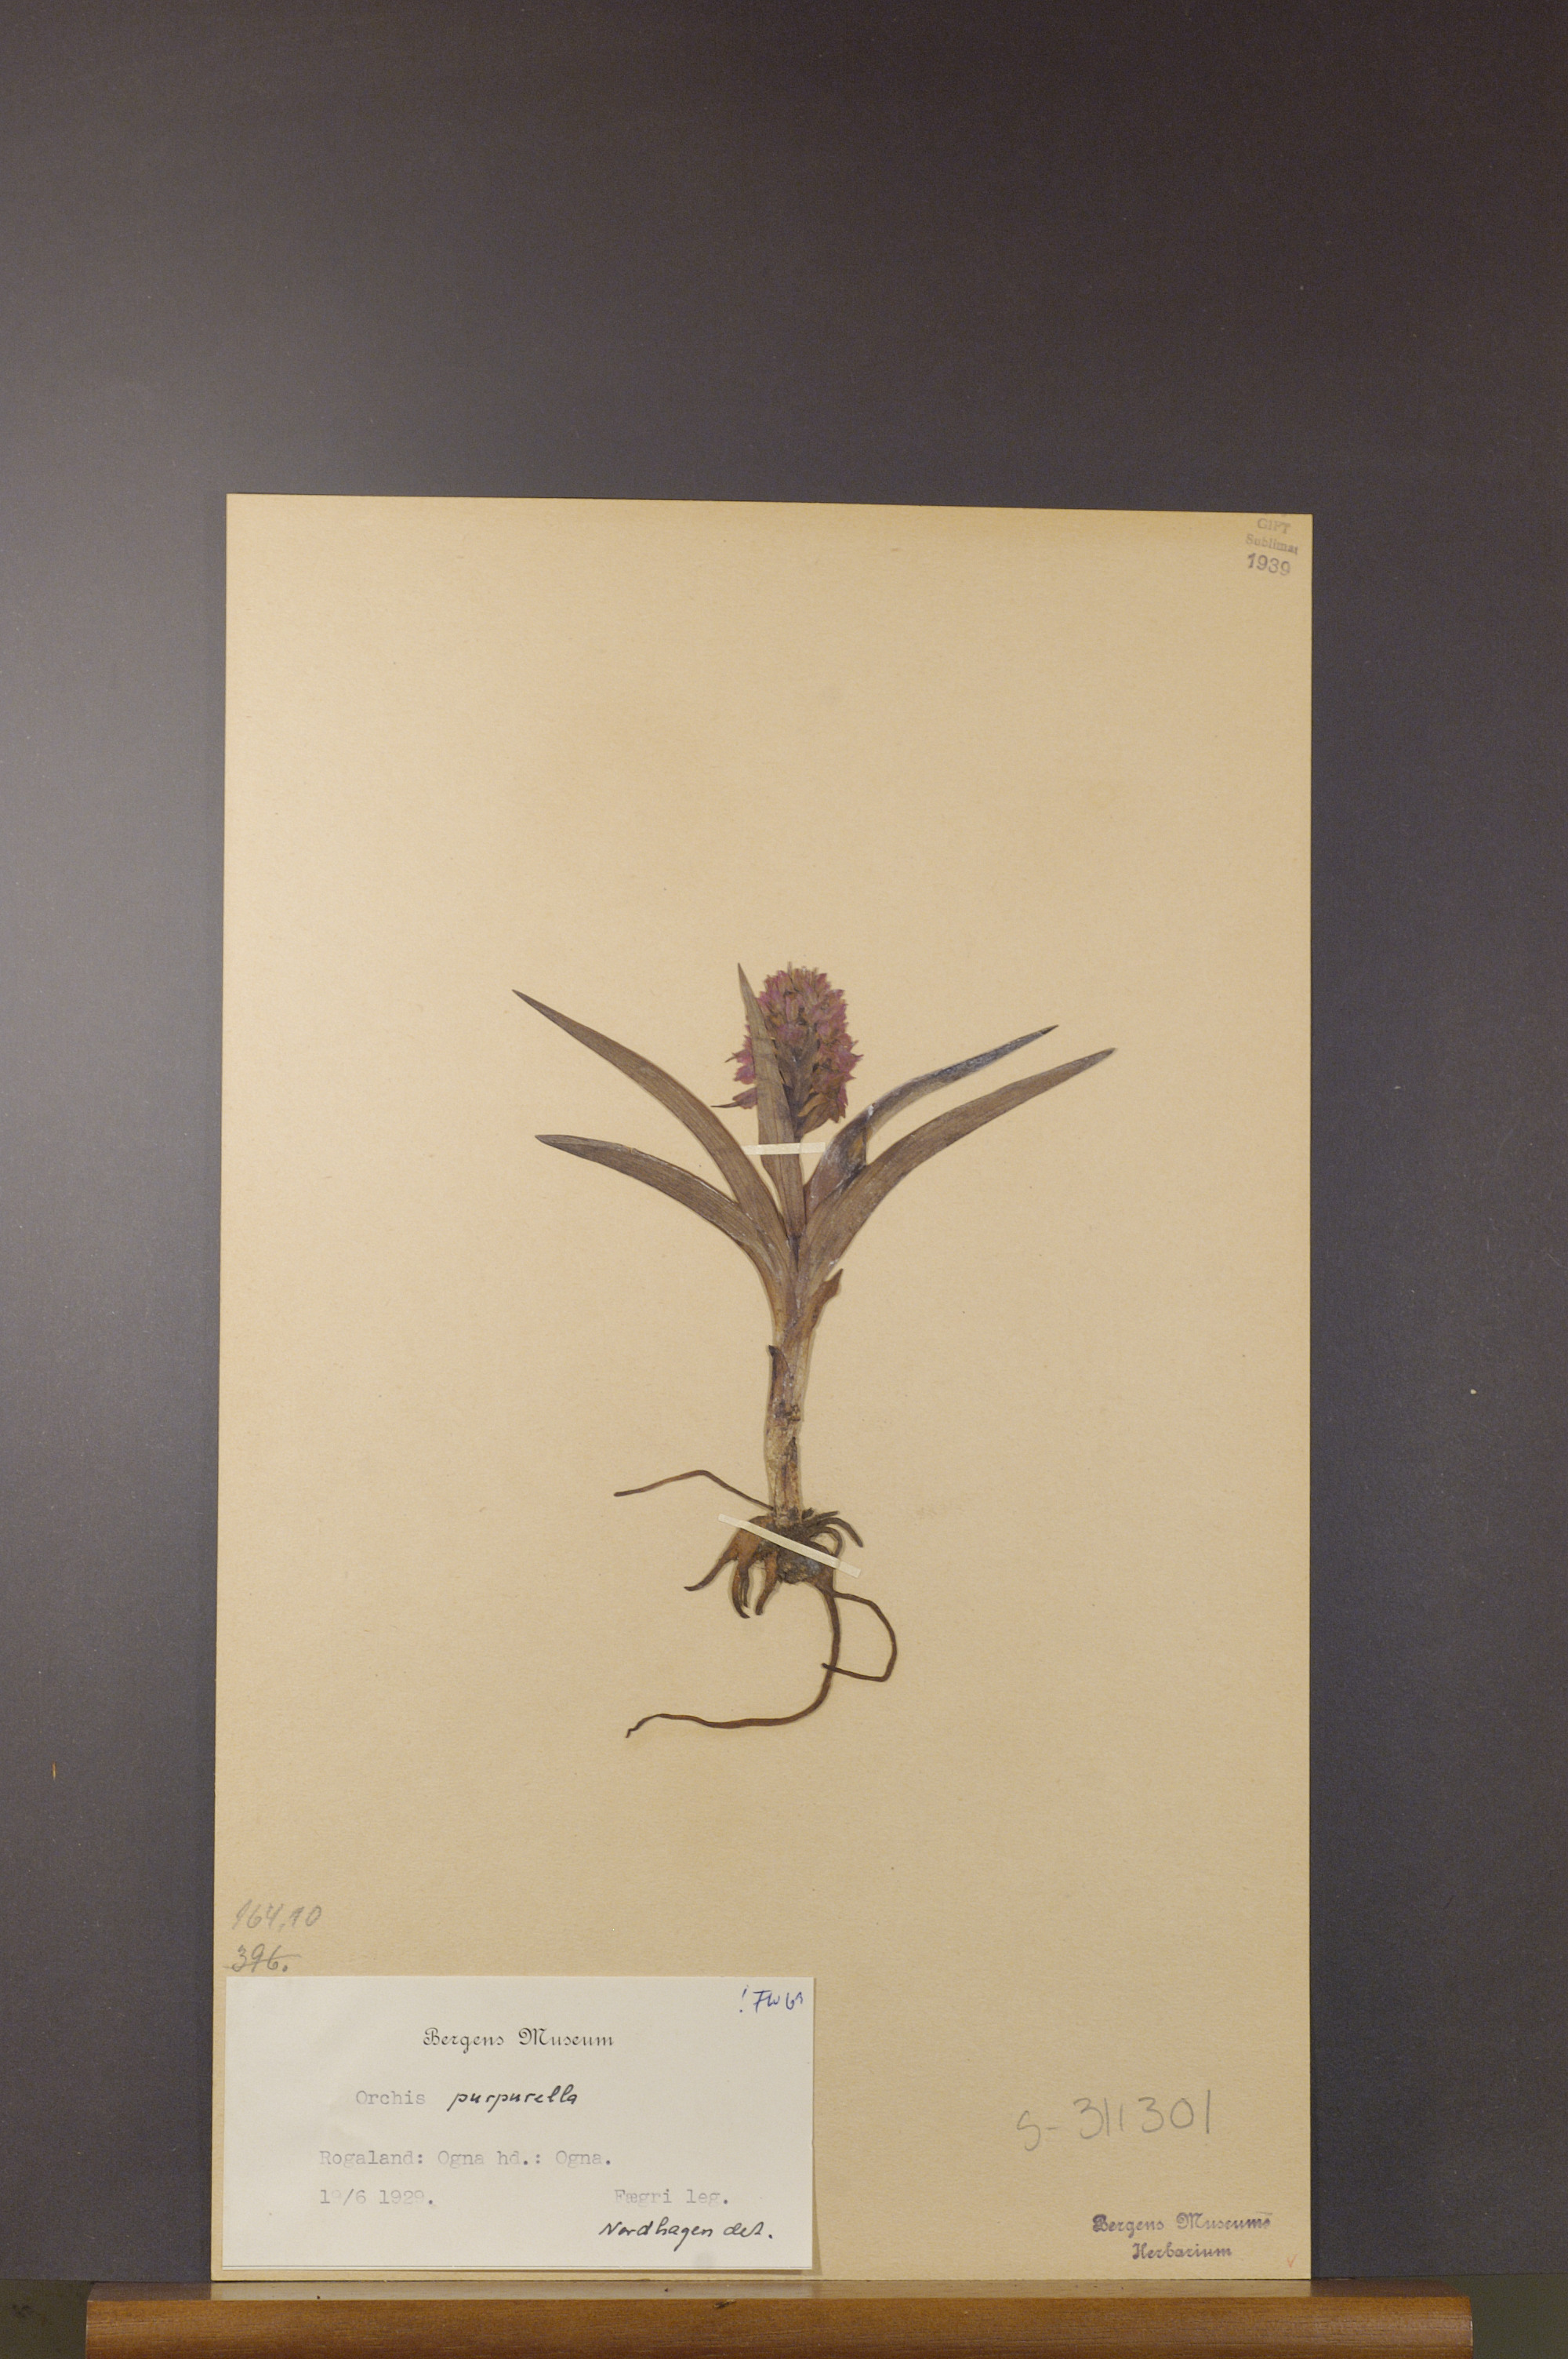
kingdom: Plantae
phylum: Tracheophyta
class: Liliopsida
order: Asparagales
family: Orchidaceae
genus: Dactylorhiza
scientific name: Dactylorhiza majalis
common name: Marsh orchid
